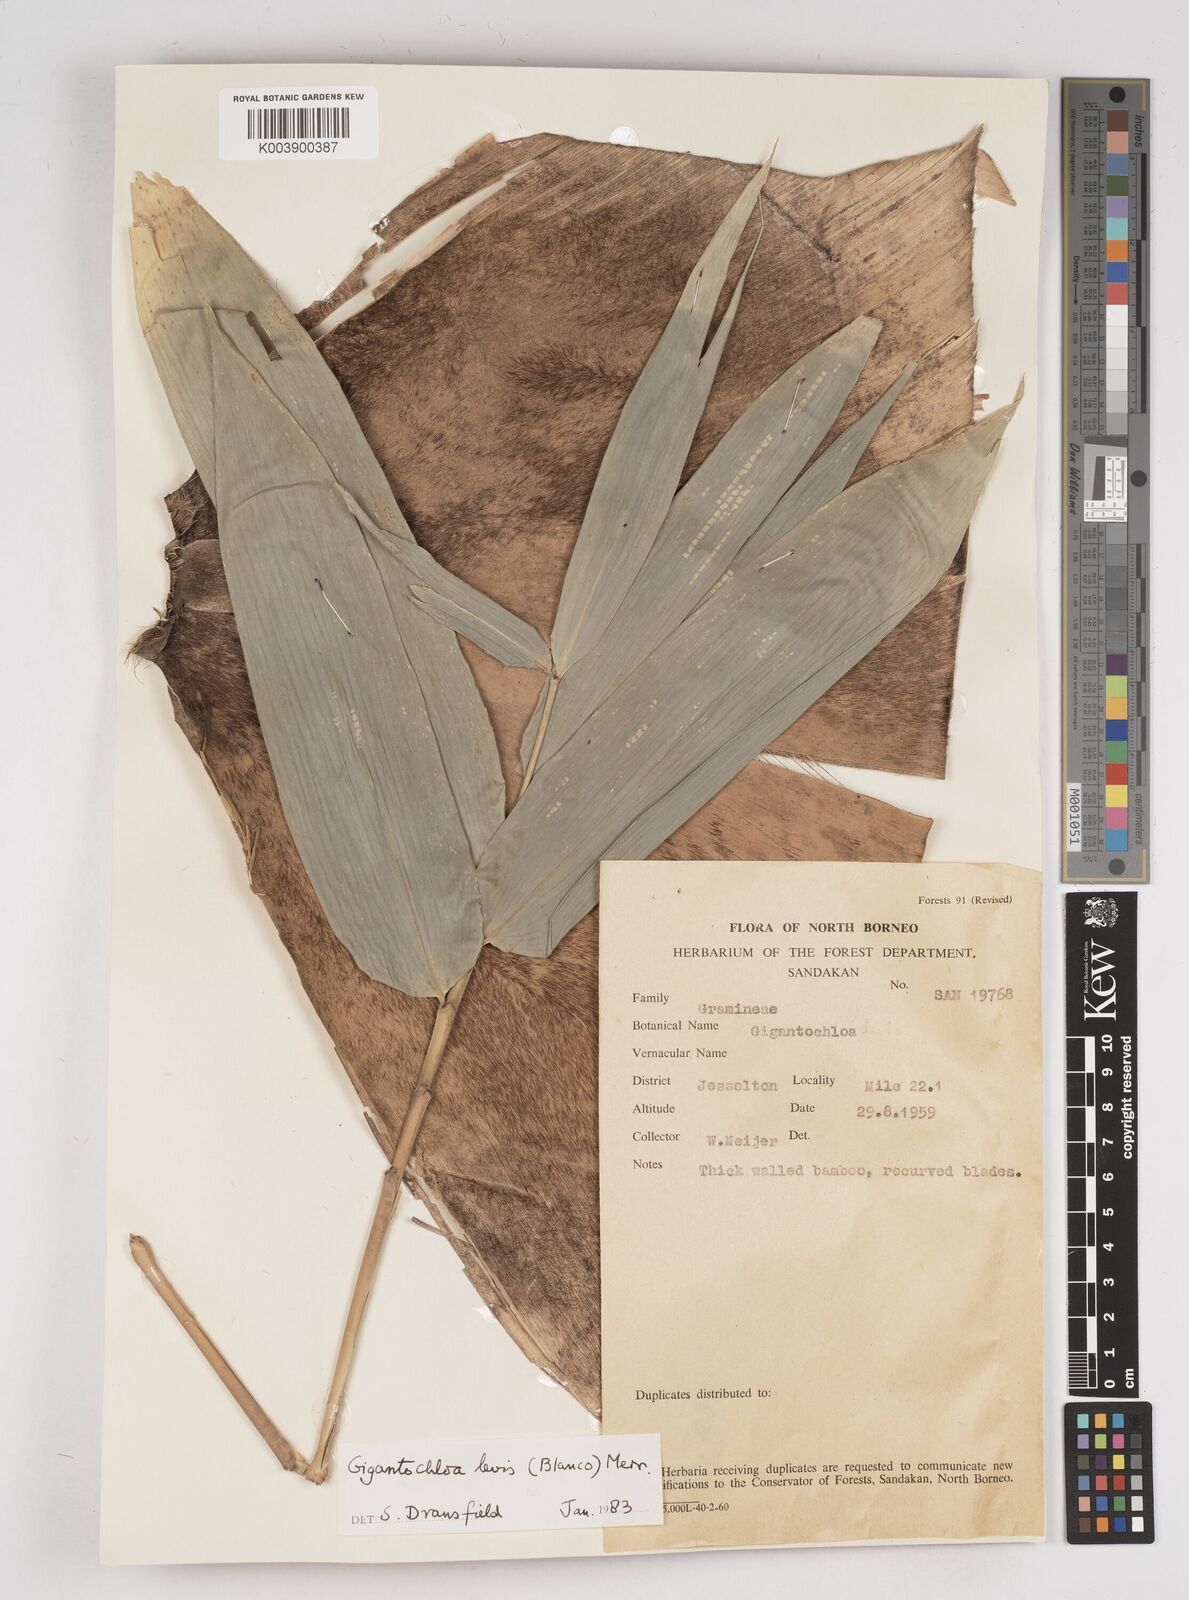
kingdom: Plantae
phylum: Tracheophyta
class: Liliopsida
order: Poales
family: Poaceae
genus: Gigantochloa
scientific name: Gigantochloa levis
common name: Smooth-shoot gigantochloa
